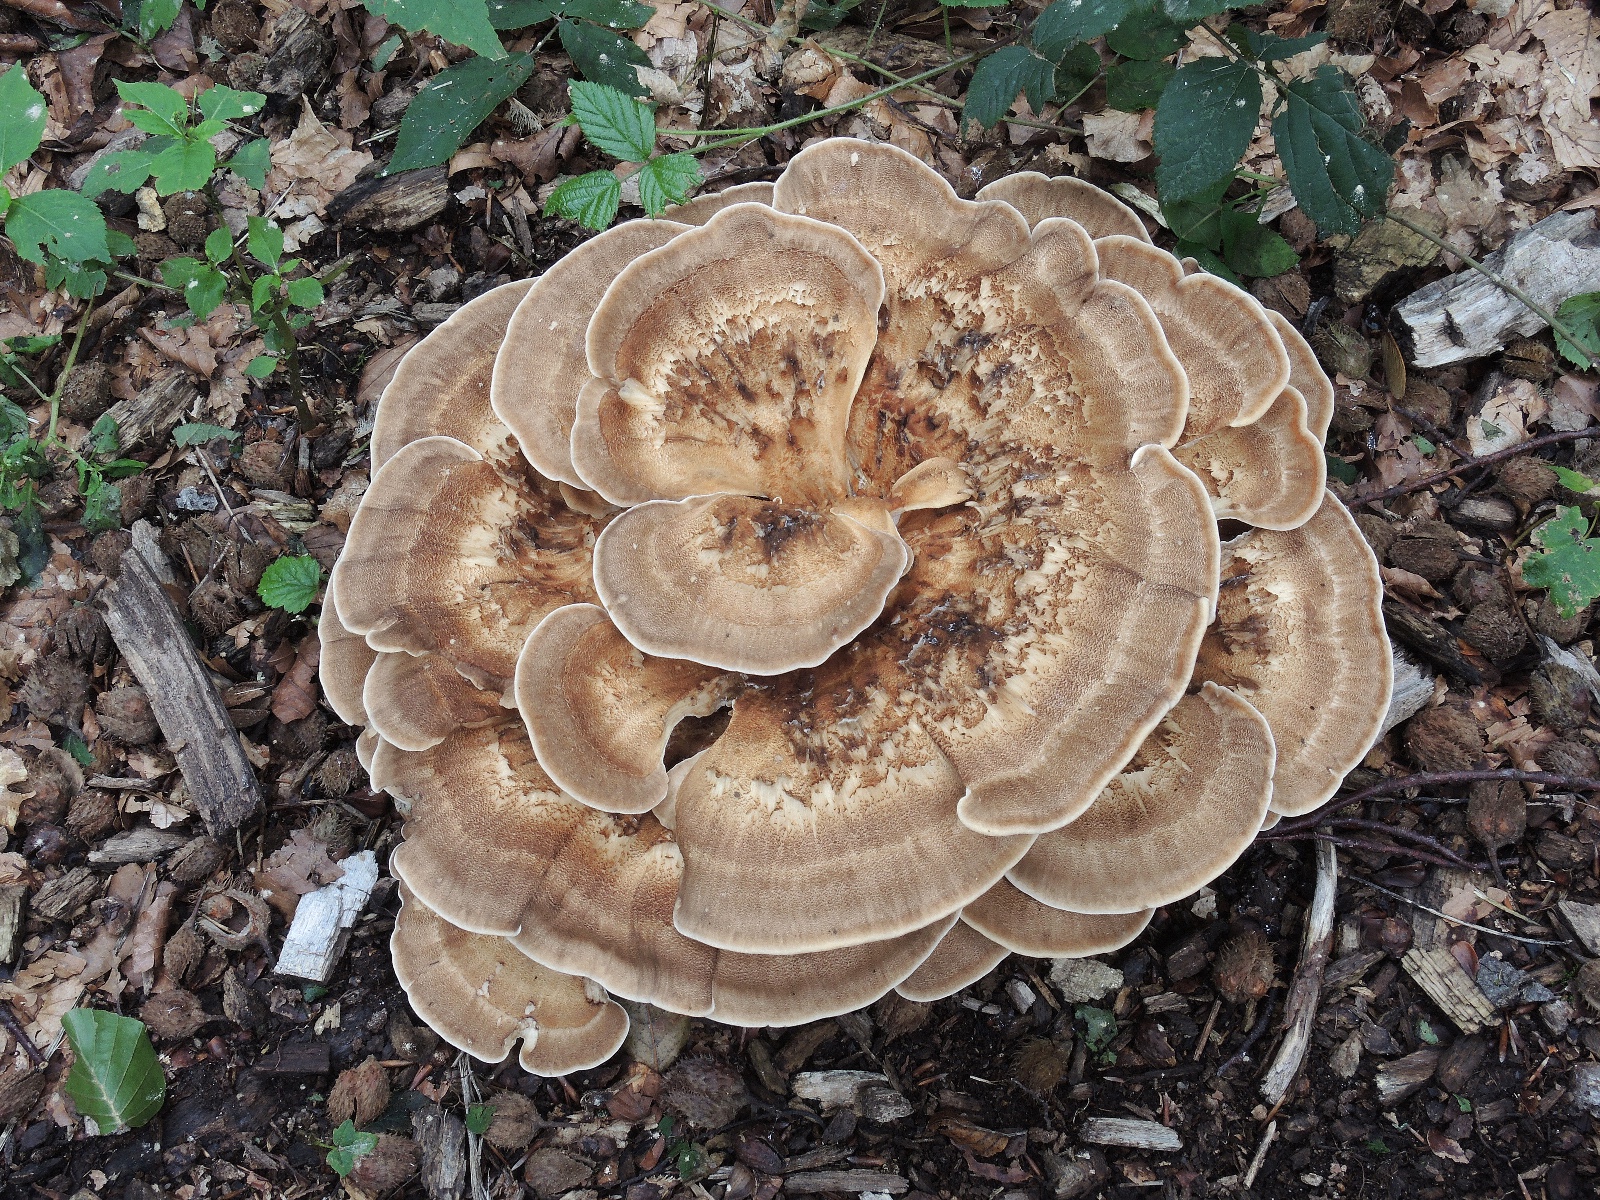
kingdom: Fungi
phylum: Basidiomycota
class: Agaricomycetes
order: Polyporales
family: Meripilaceae
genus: Meripilus
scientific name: Meripilus giganteus
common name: kæmpeporesvamp
